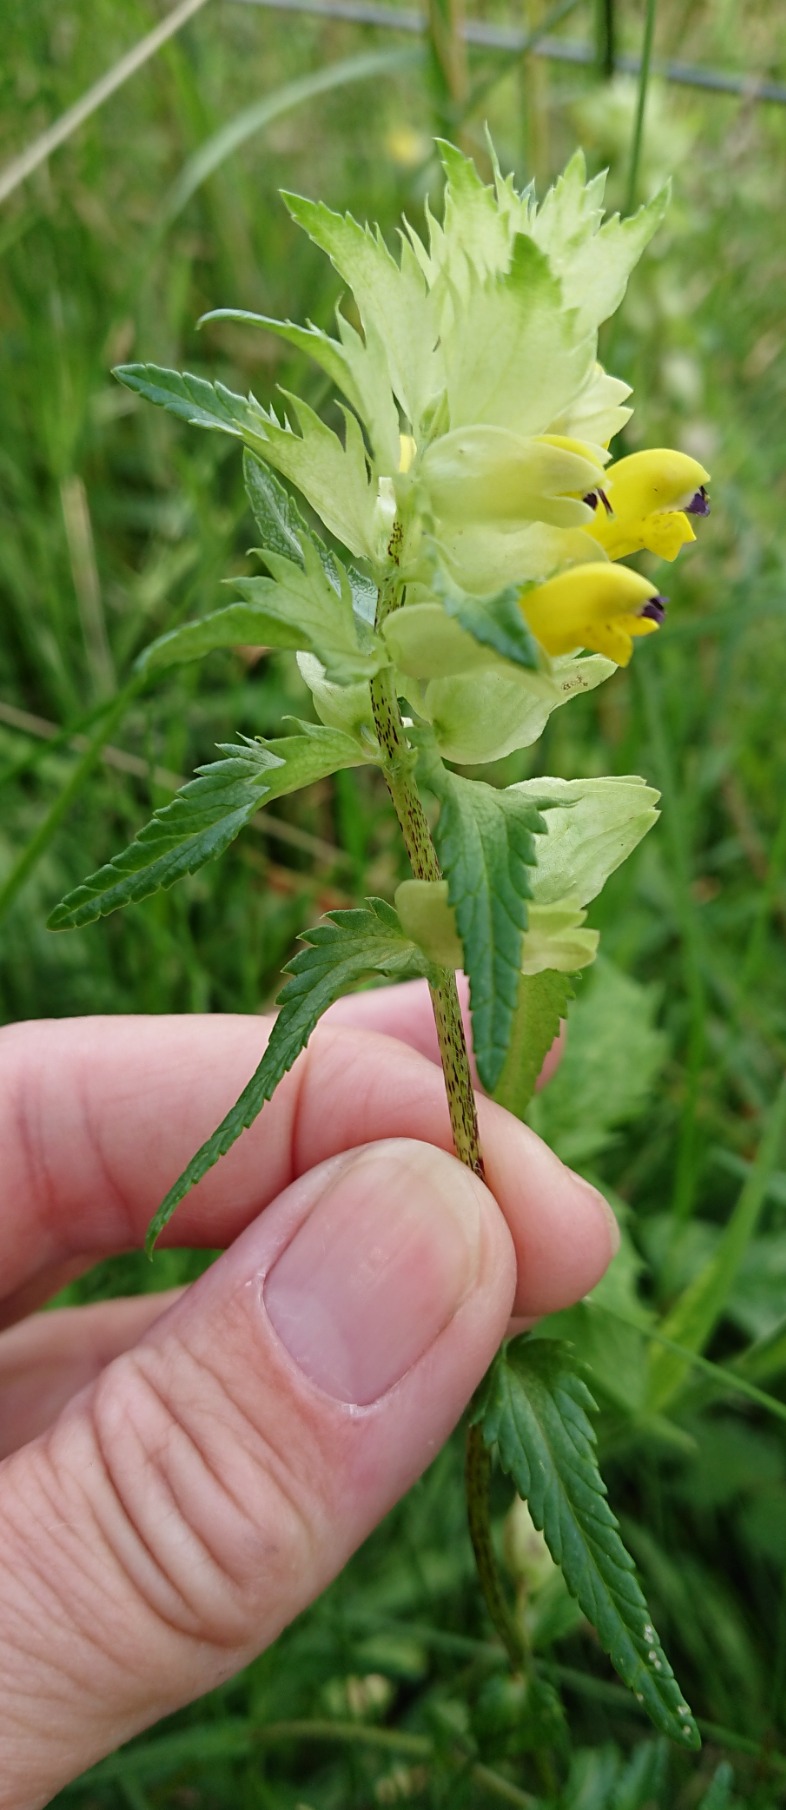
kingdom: Plantae
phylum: Tracheophyta
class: Magnoliopsida
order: Lamiales
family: Orobanchaceae
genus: Rhinanthus
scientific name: Rhinanthus
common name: Stor skjaller
